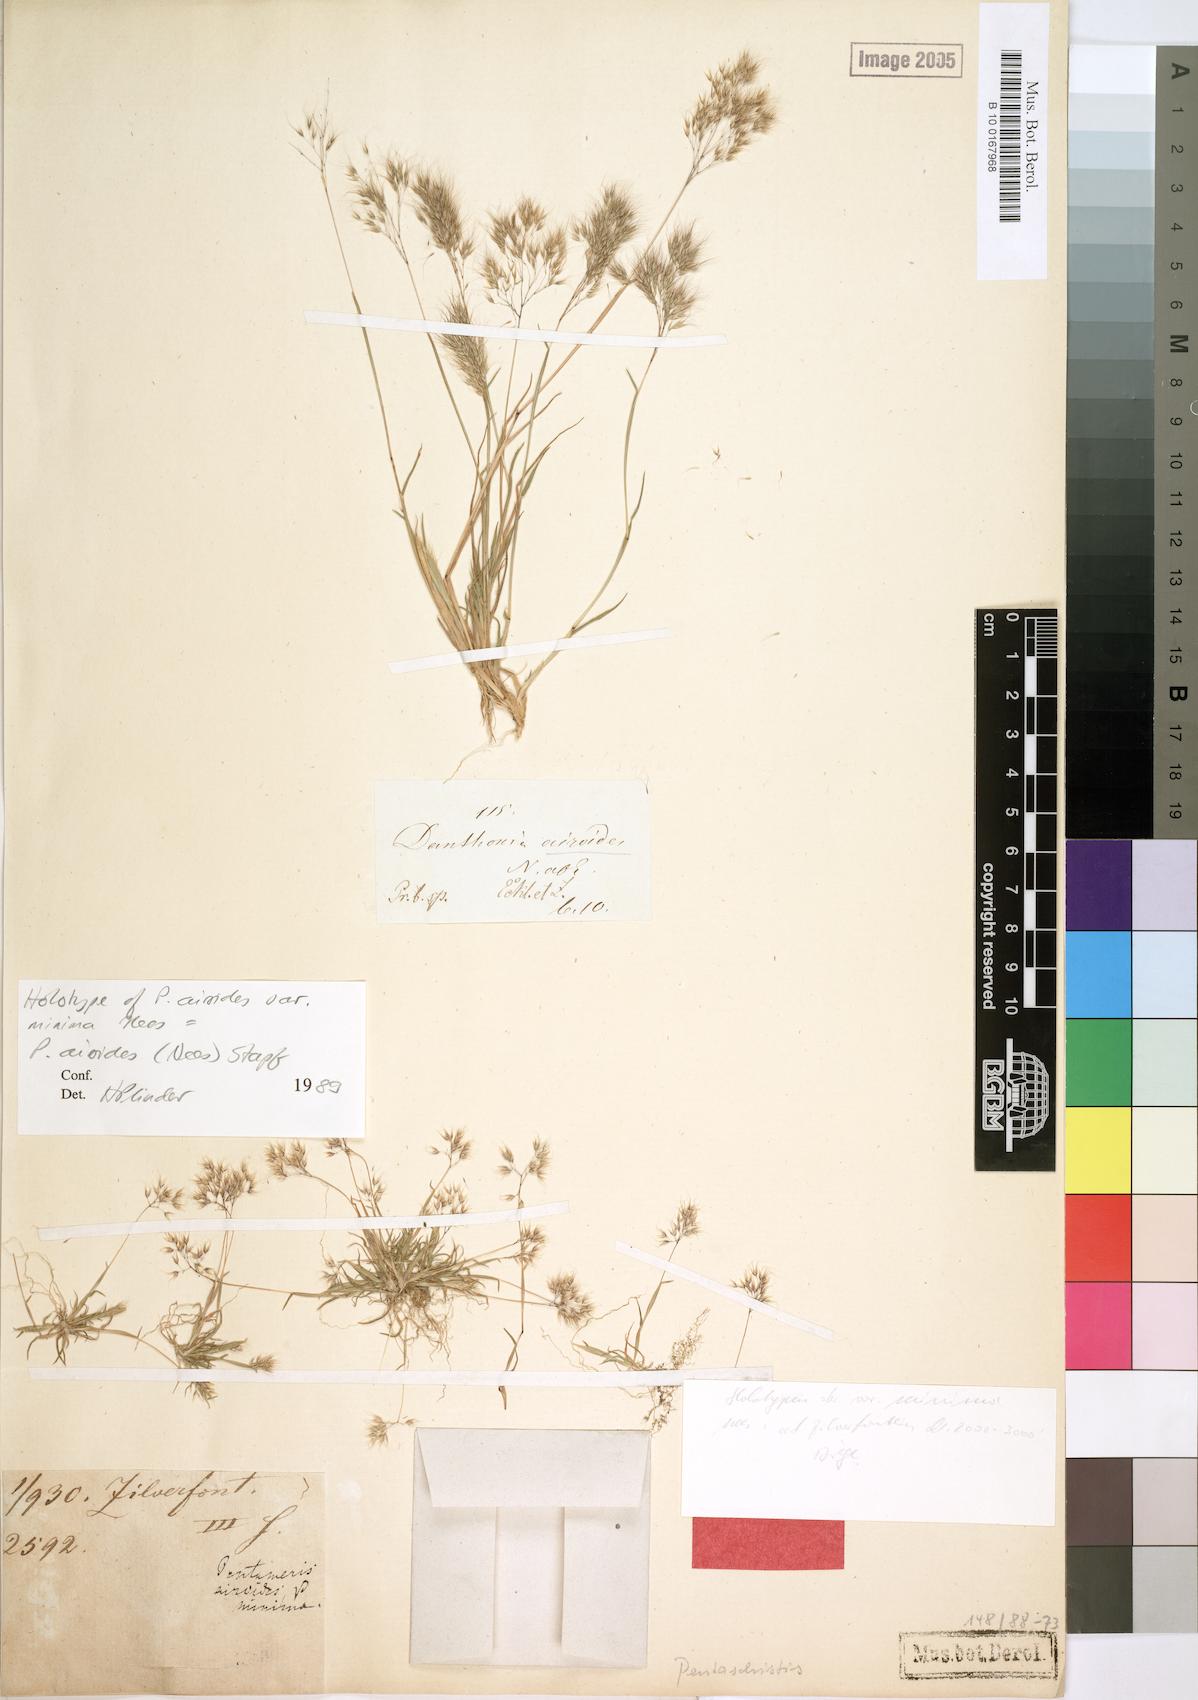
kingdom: Plantae
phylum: Tracheophyta
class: Liliopsida
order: Poales
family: Poaceae
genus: Pentameris
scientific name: Pentameris airoides
